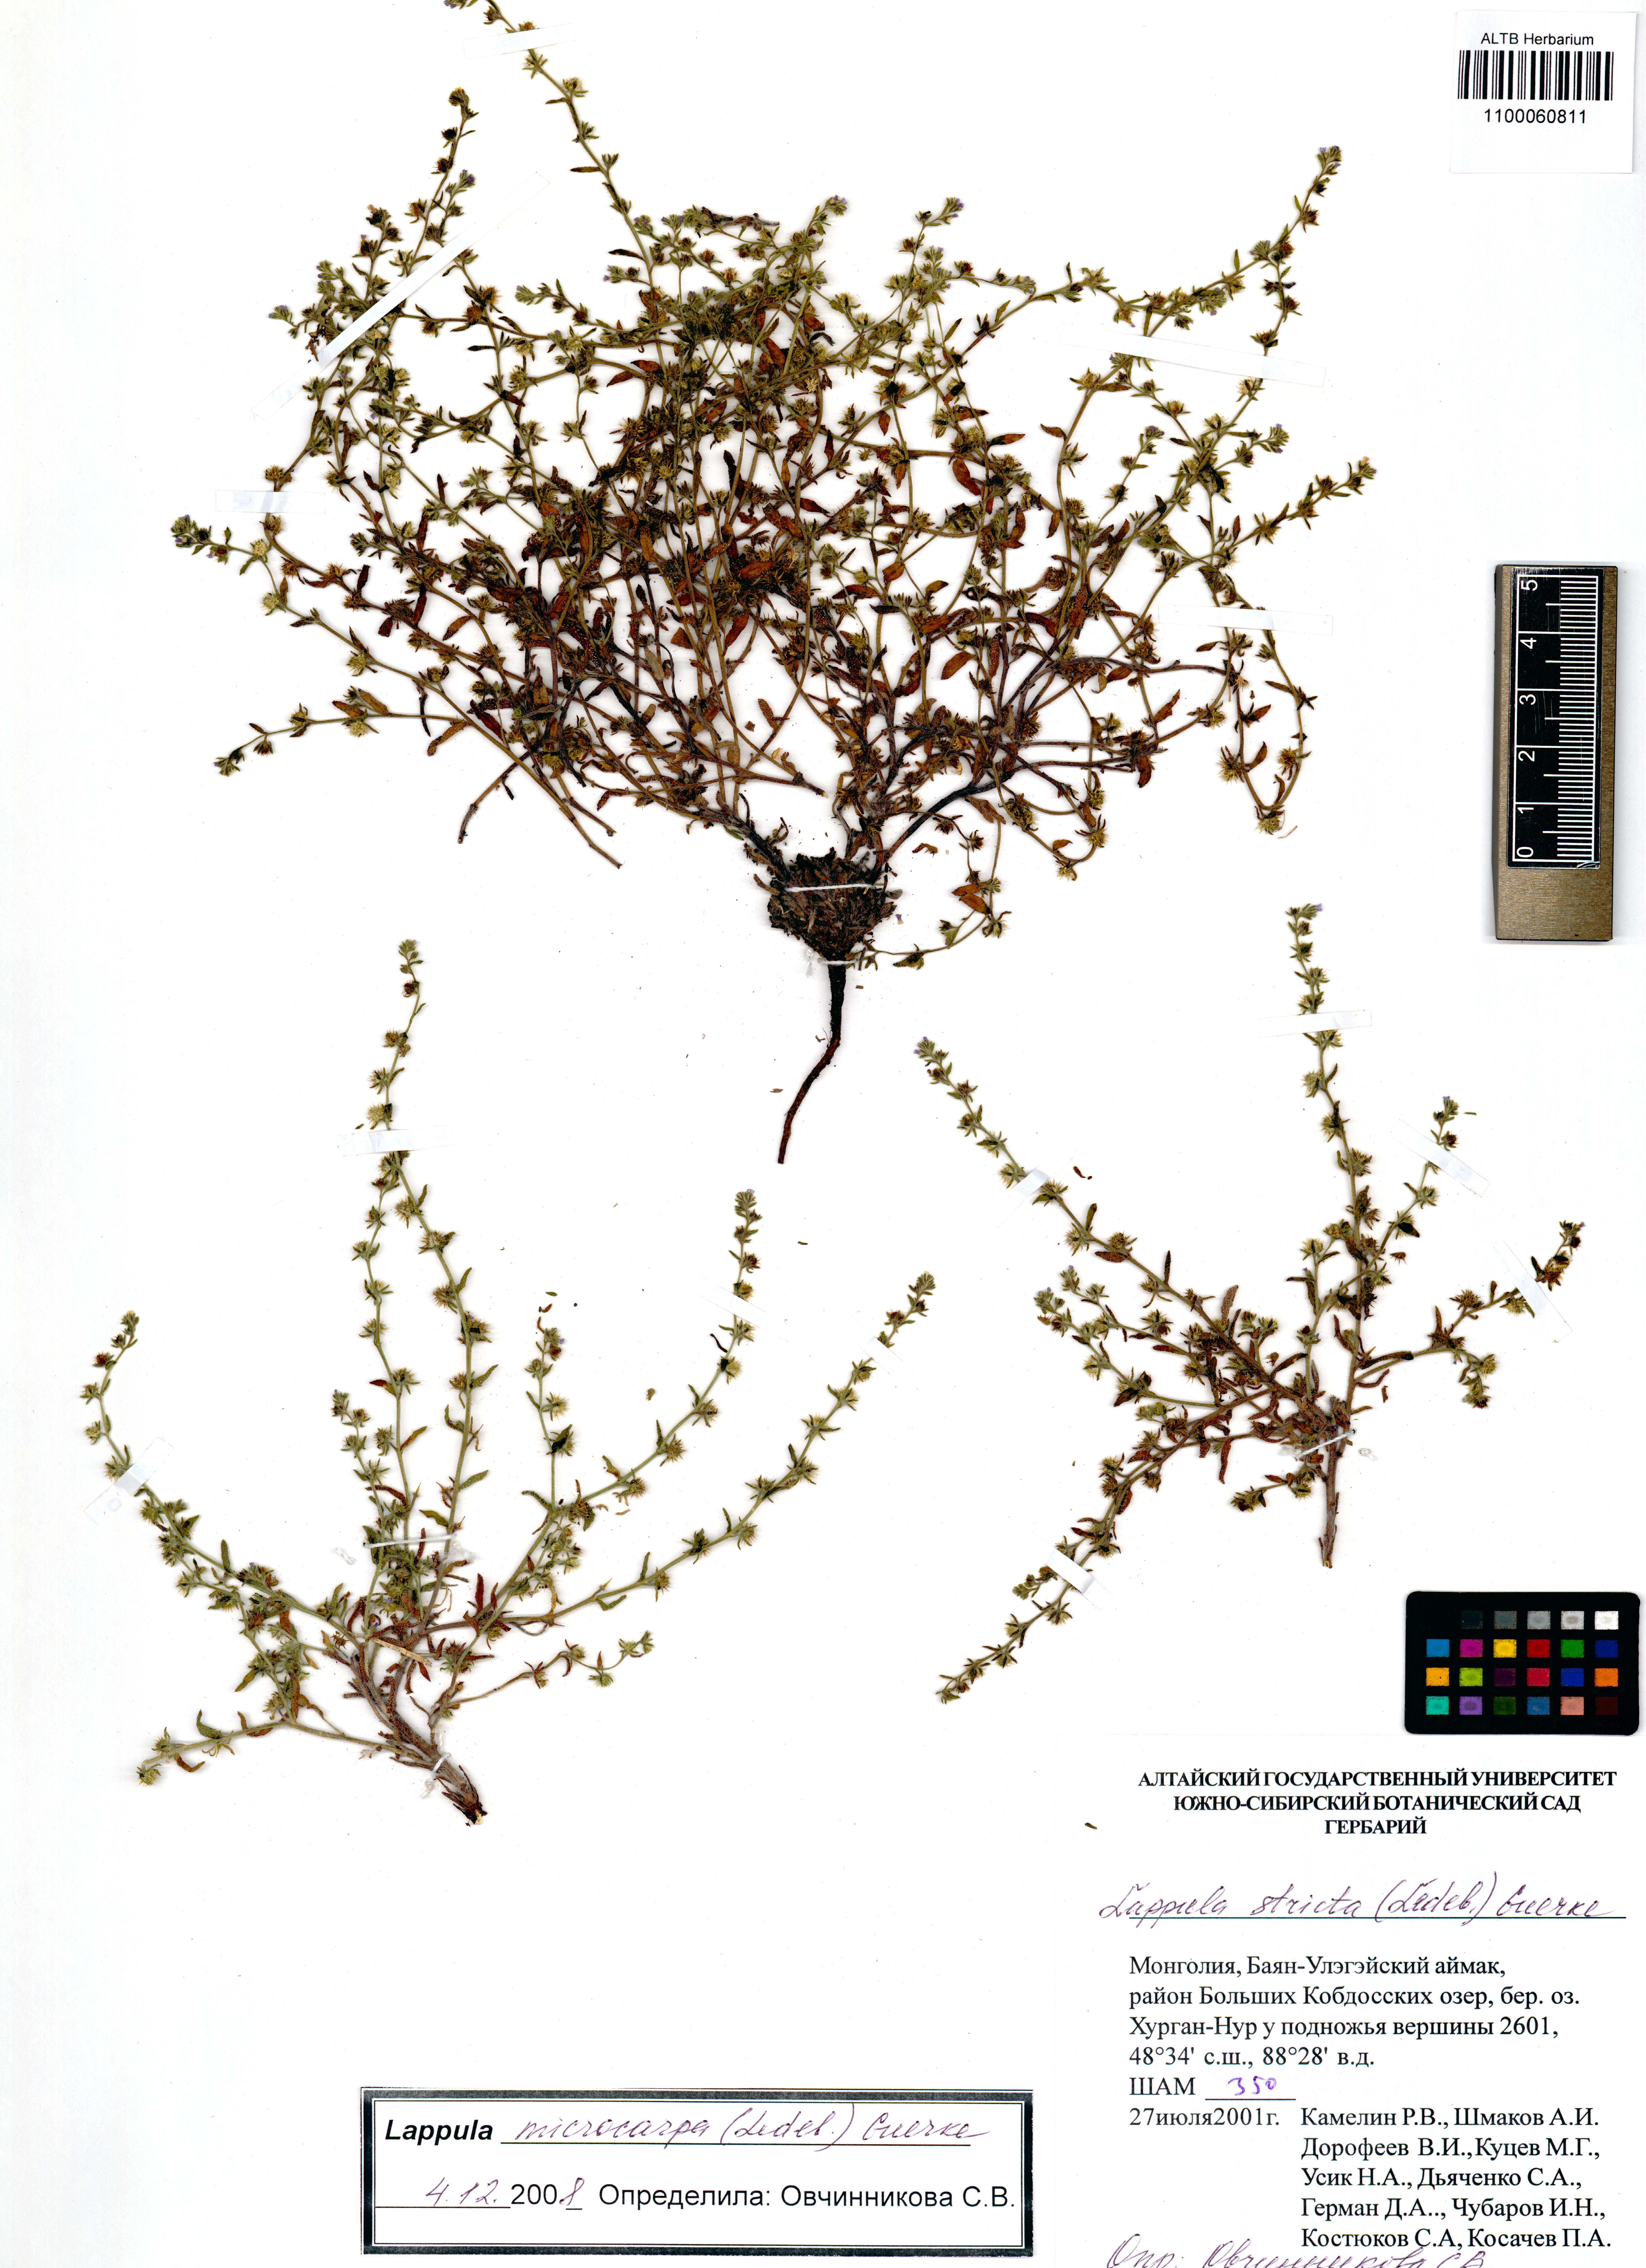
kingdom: Plantae
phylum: Tracheophyta
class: Magnoliopsida
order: Boraginales
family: Boraginaceae
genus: Lappula
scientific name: Lappula stricta
